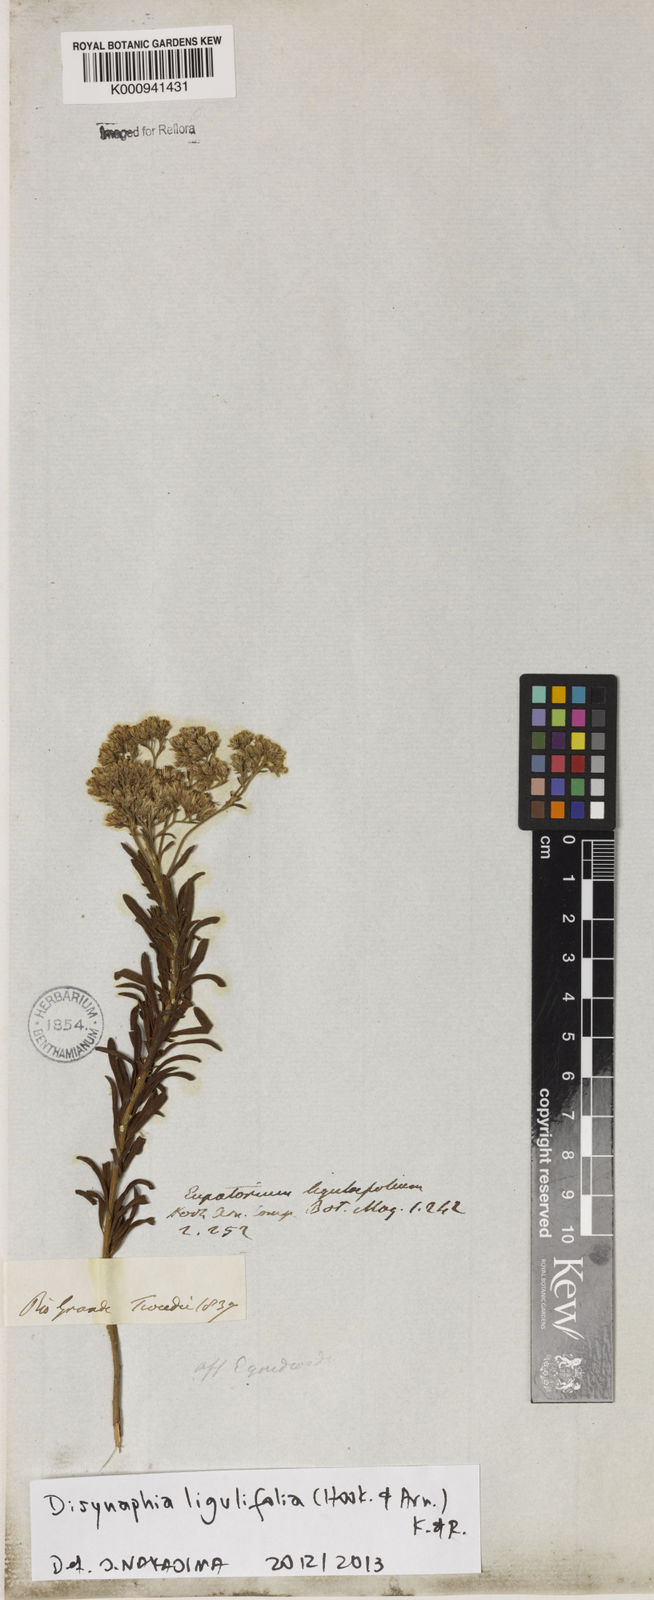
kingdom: Plantae
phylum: Tracheophyta
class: Magnoliopsida
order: Asterales
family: Asteraceae
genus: Disynaphia
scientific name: Disynaphia ligulifolia
